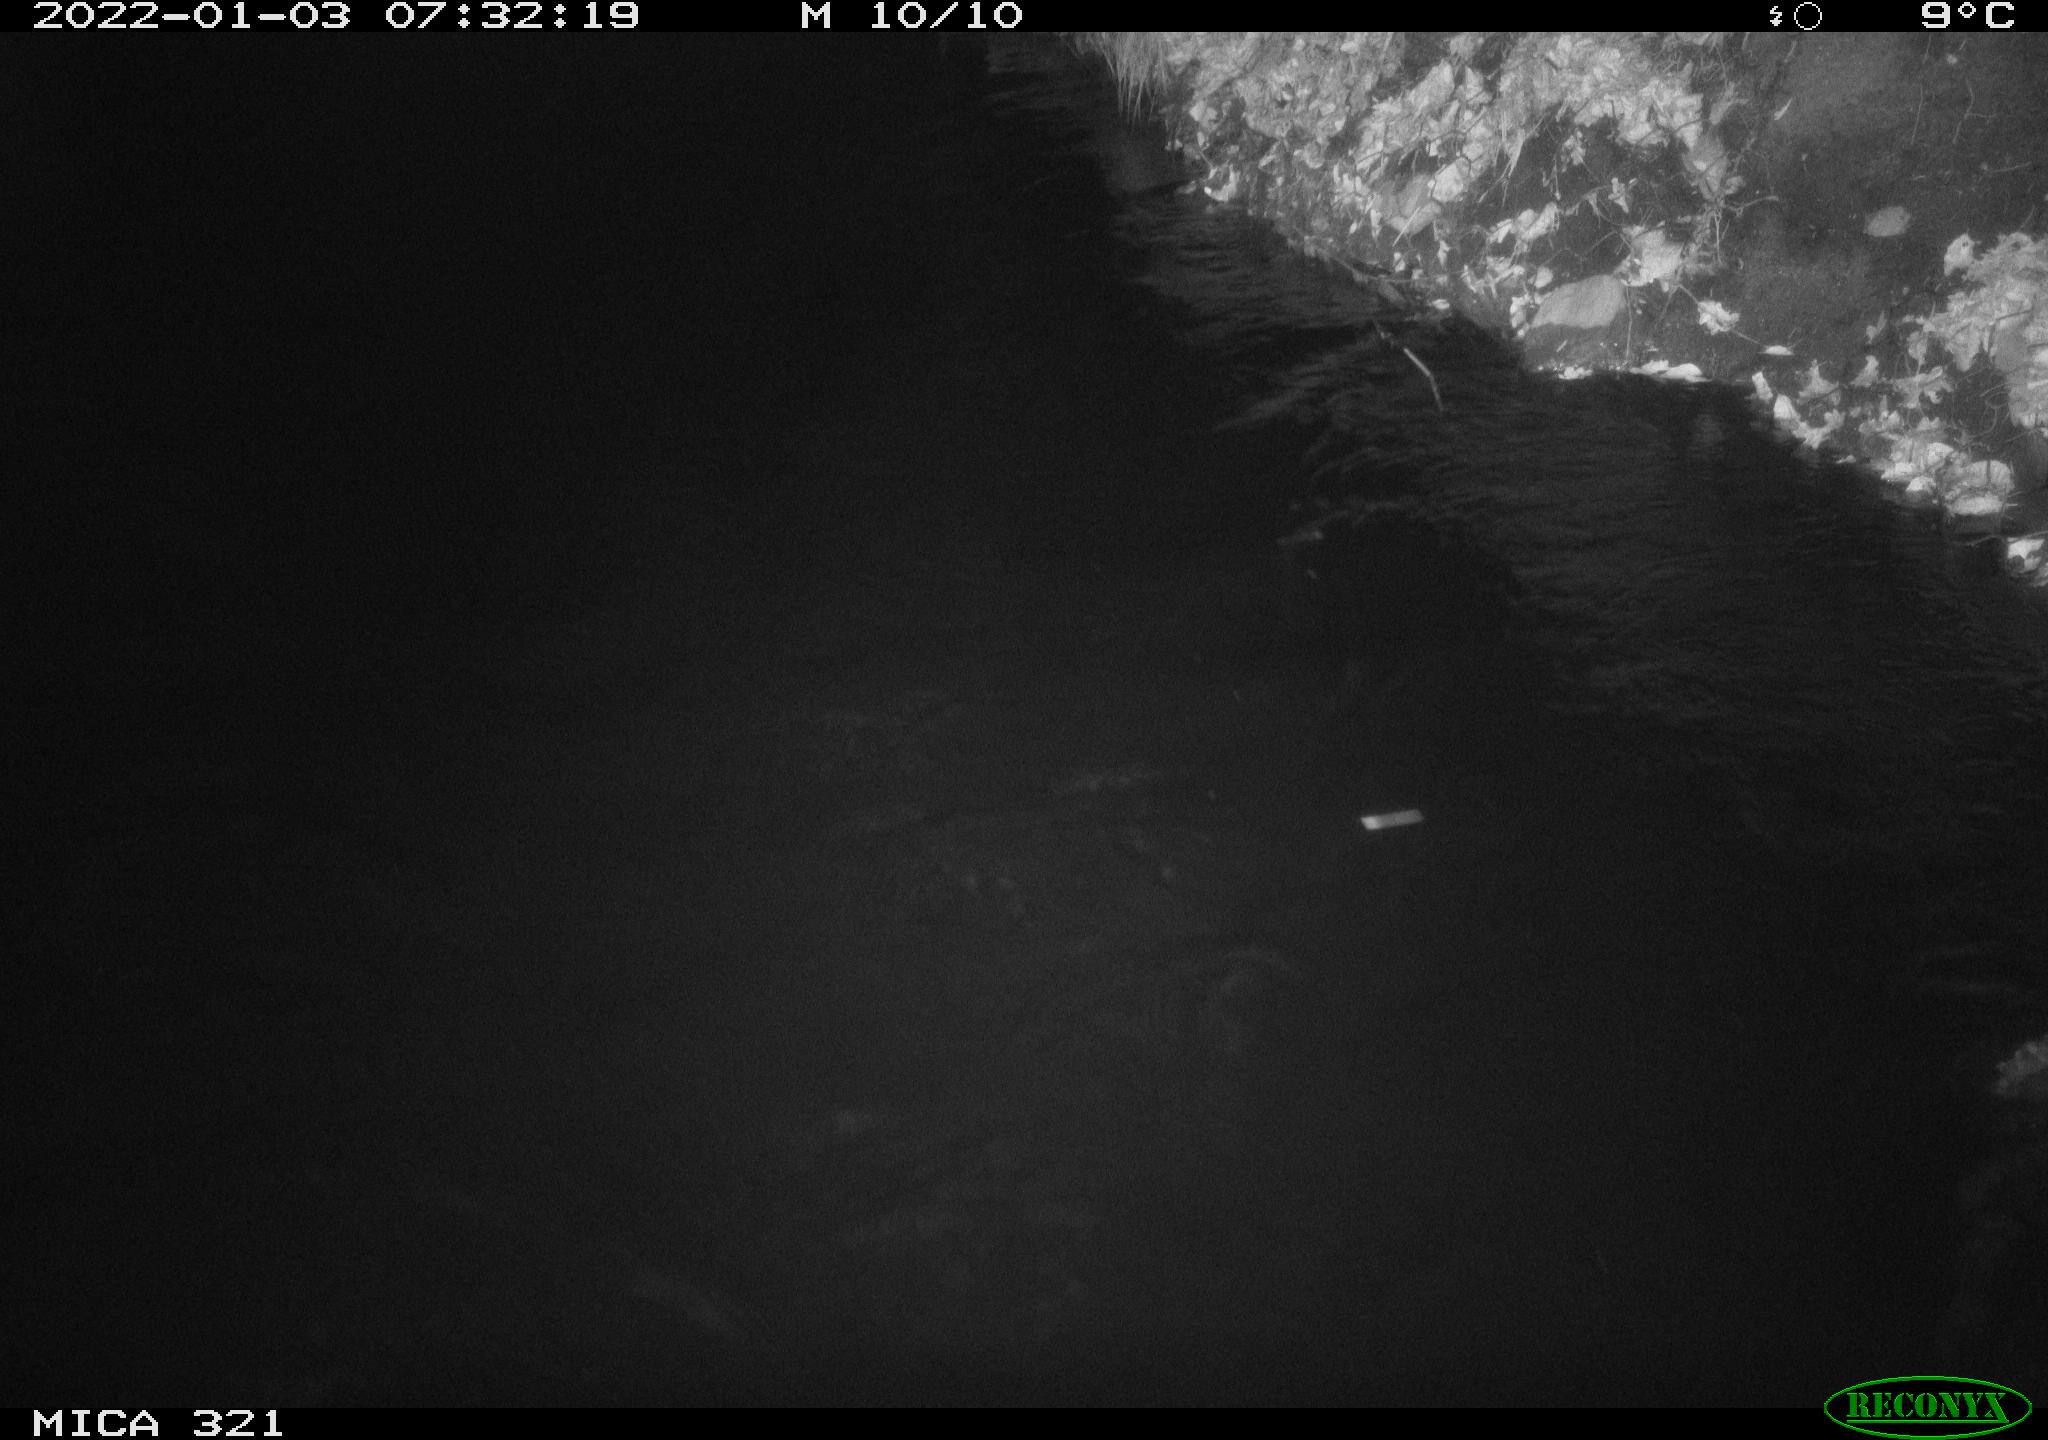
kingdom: Animalia
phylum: Chordata
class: Aves
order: Anseriformes
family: Anatidae
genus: Anas
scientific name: Anas
